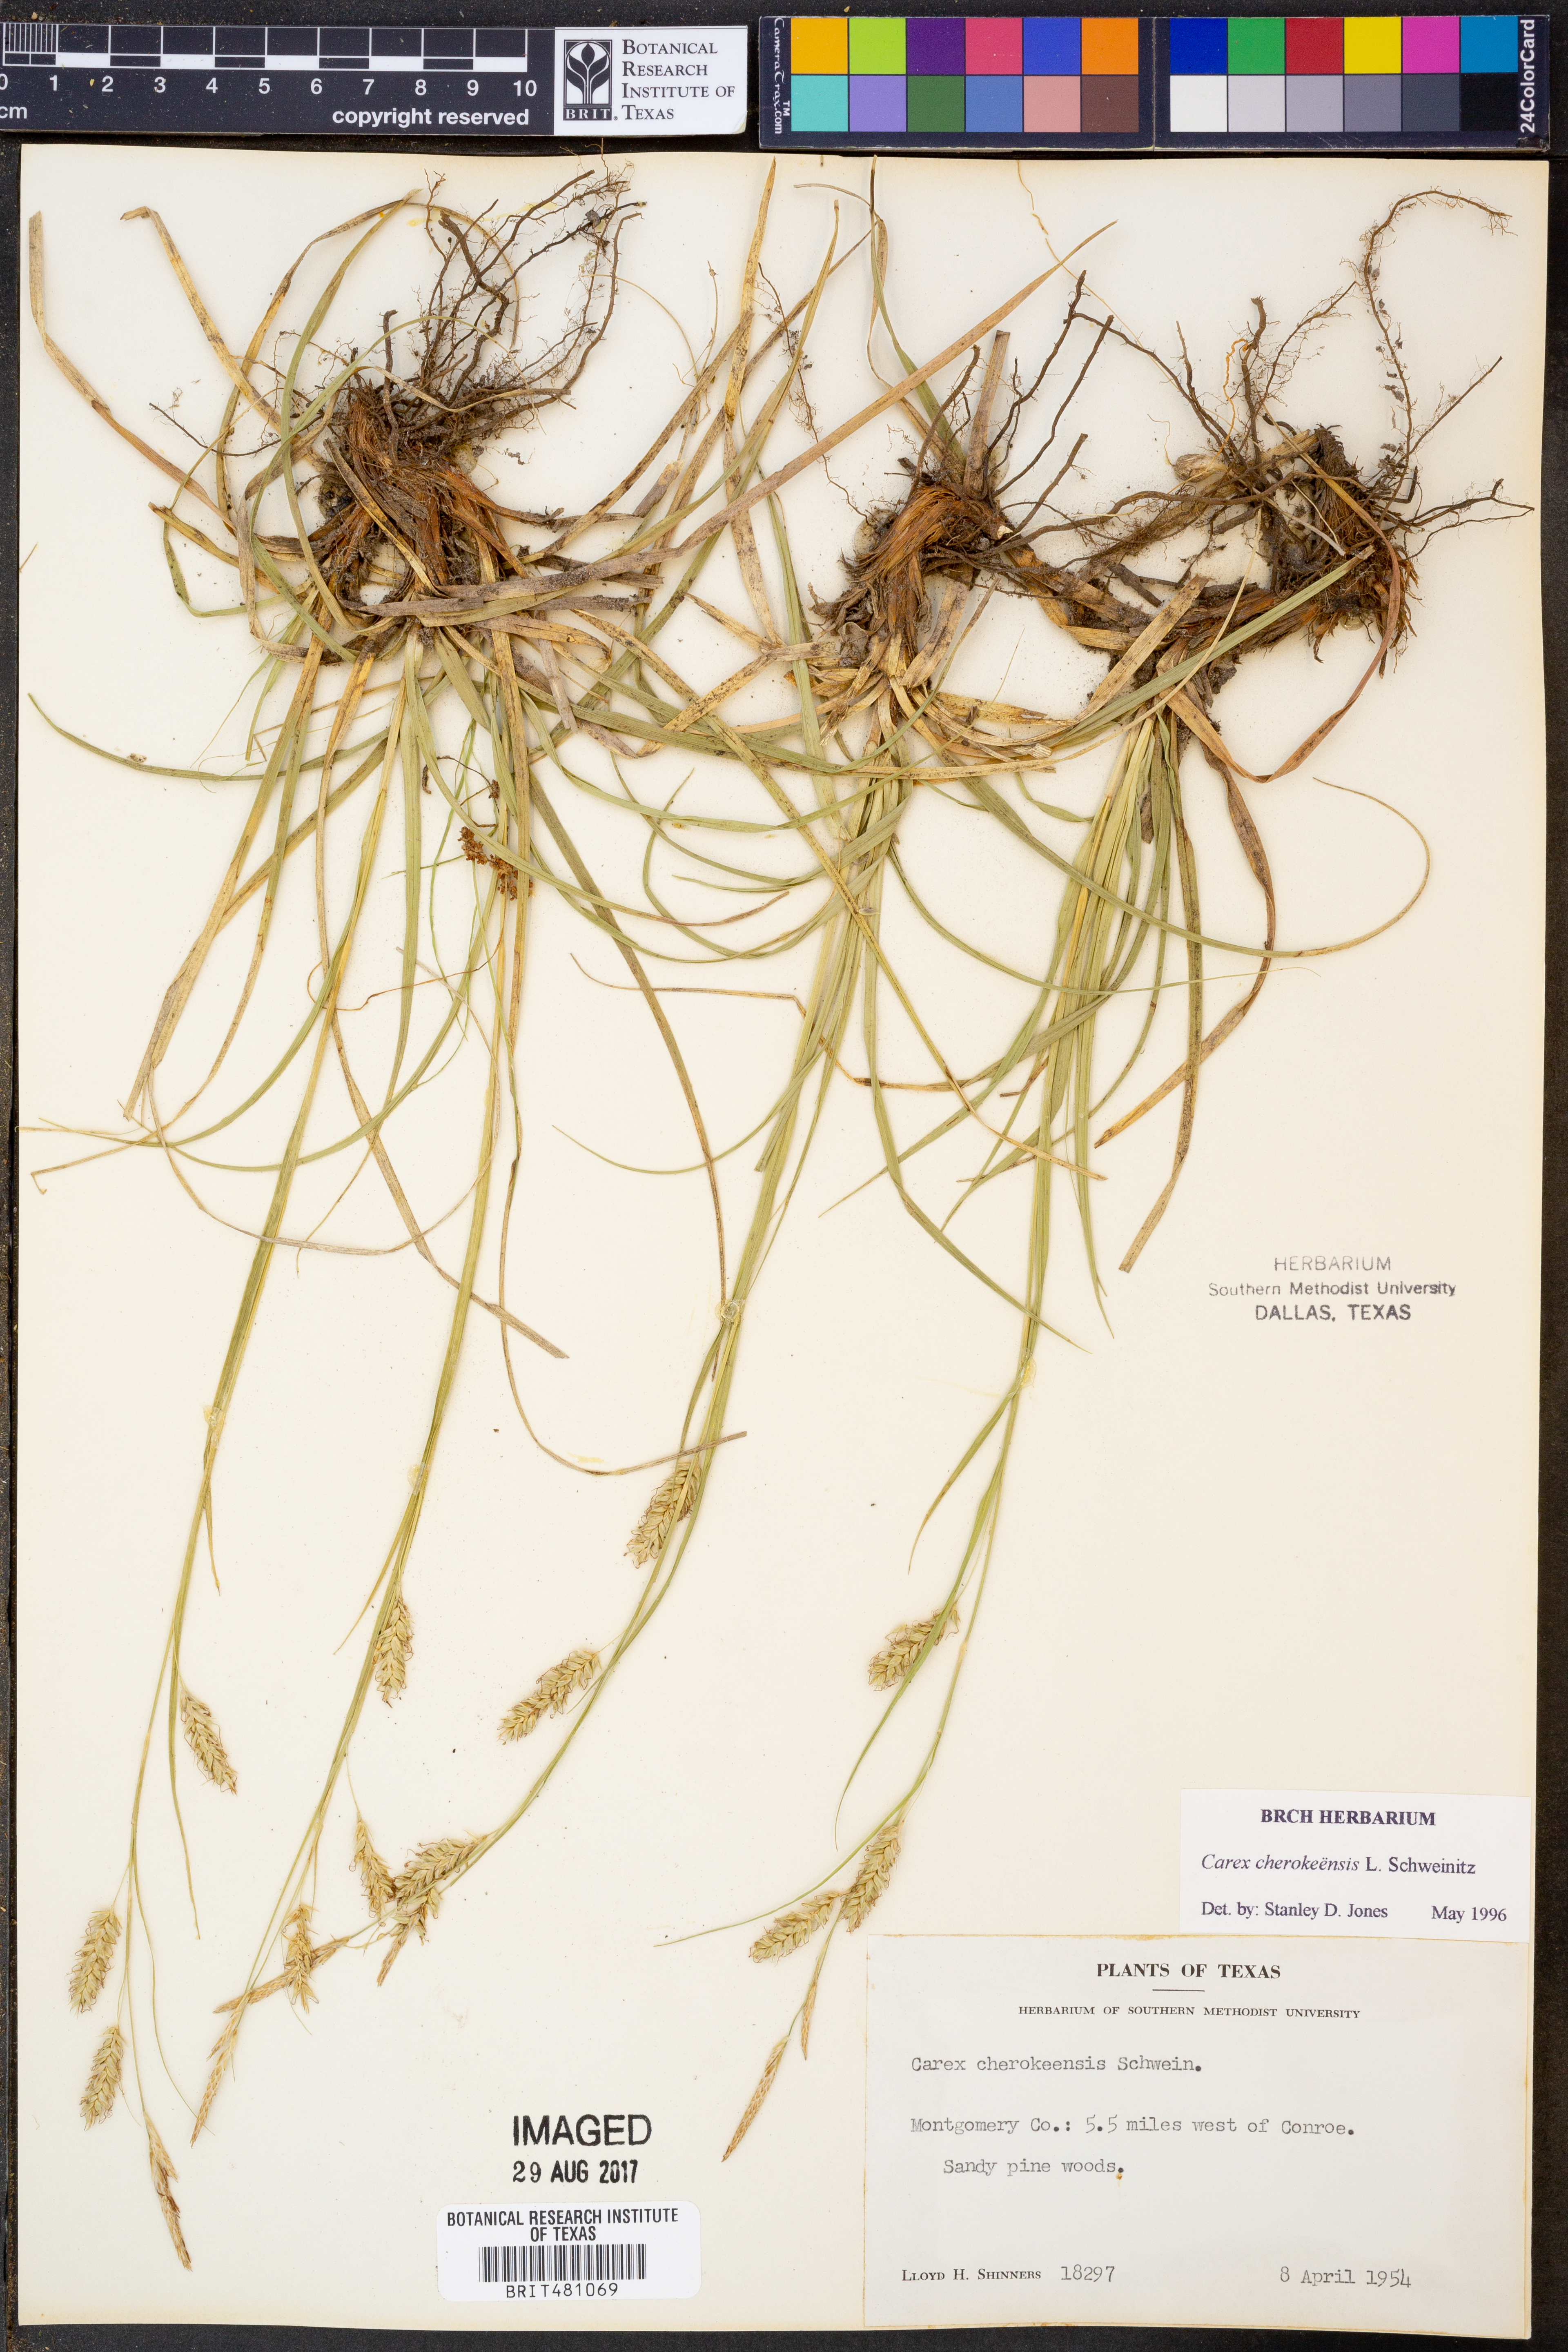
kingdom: Plantae
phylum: Tracheophyta
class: Liliopsida
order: Poales
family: Cyperaceae
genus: Carex
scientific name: Carex cherokeensis
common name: Cherokee sedge
